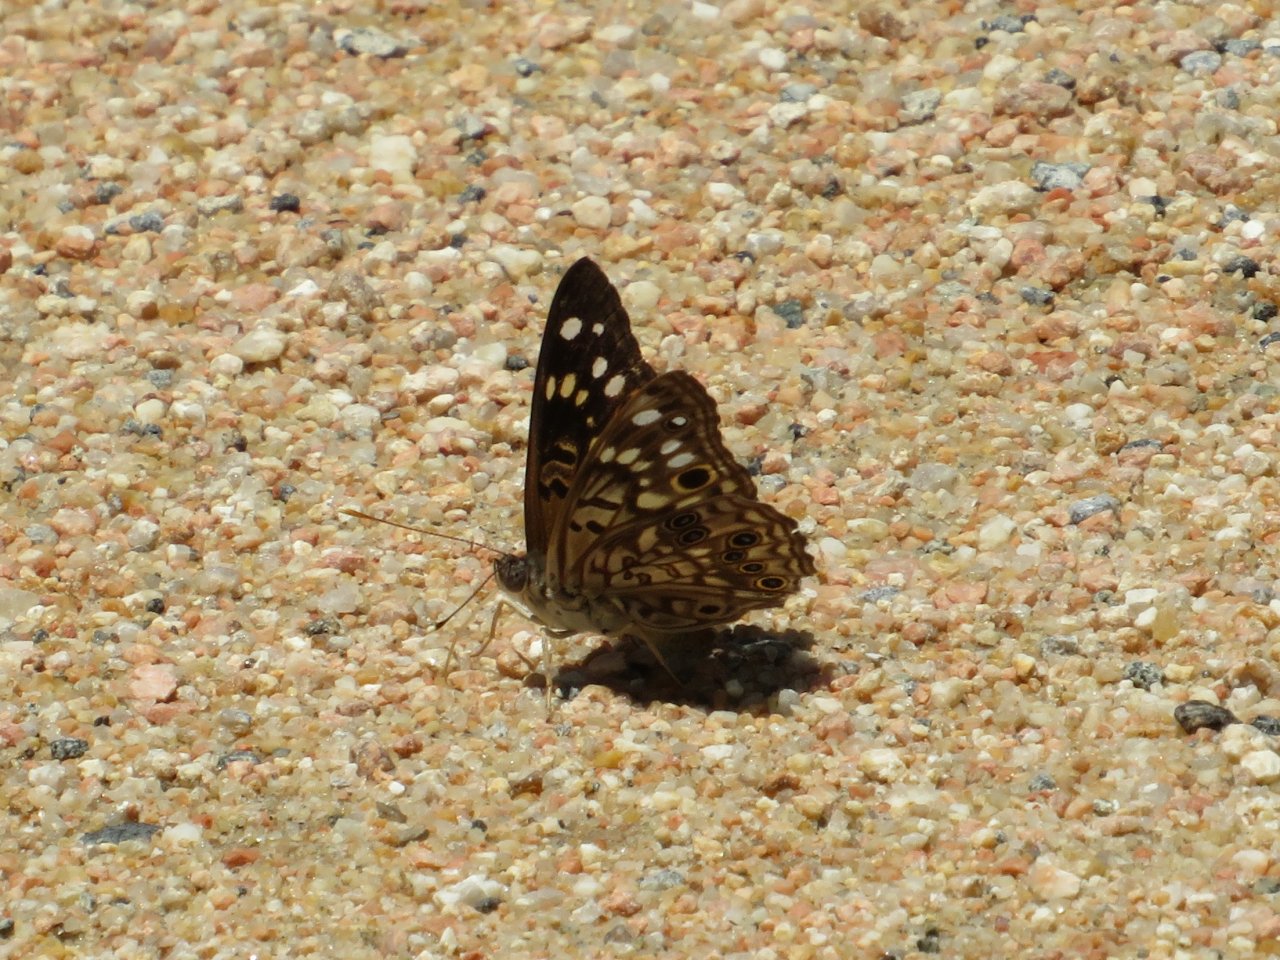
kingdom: Animalia
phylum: Arthropoda
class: Insecta
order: Lepidoptera
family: Nymphalidae
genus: Asterocampa
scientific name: Asterocampa celtis
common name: Hackberry Emperor
